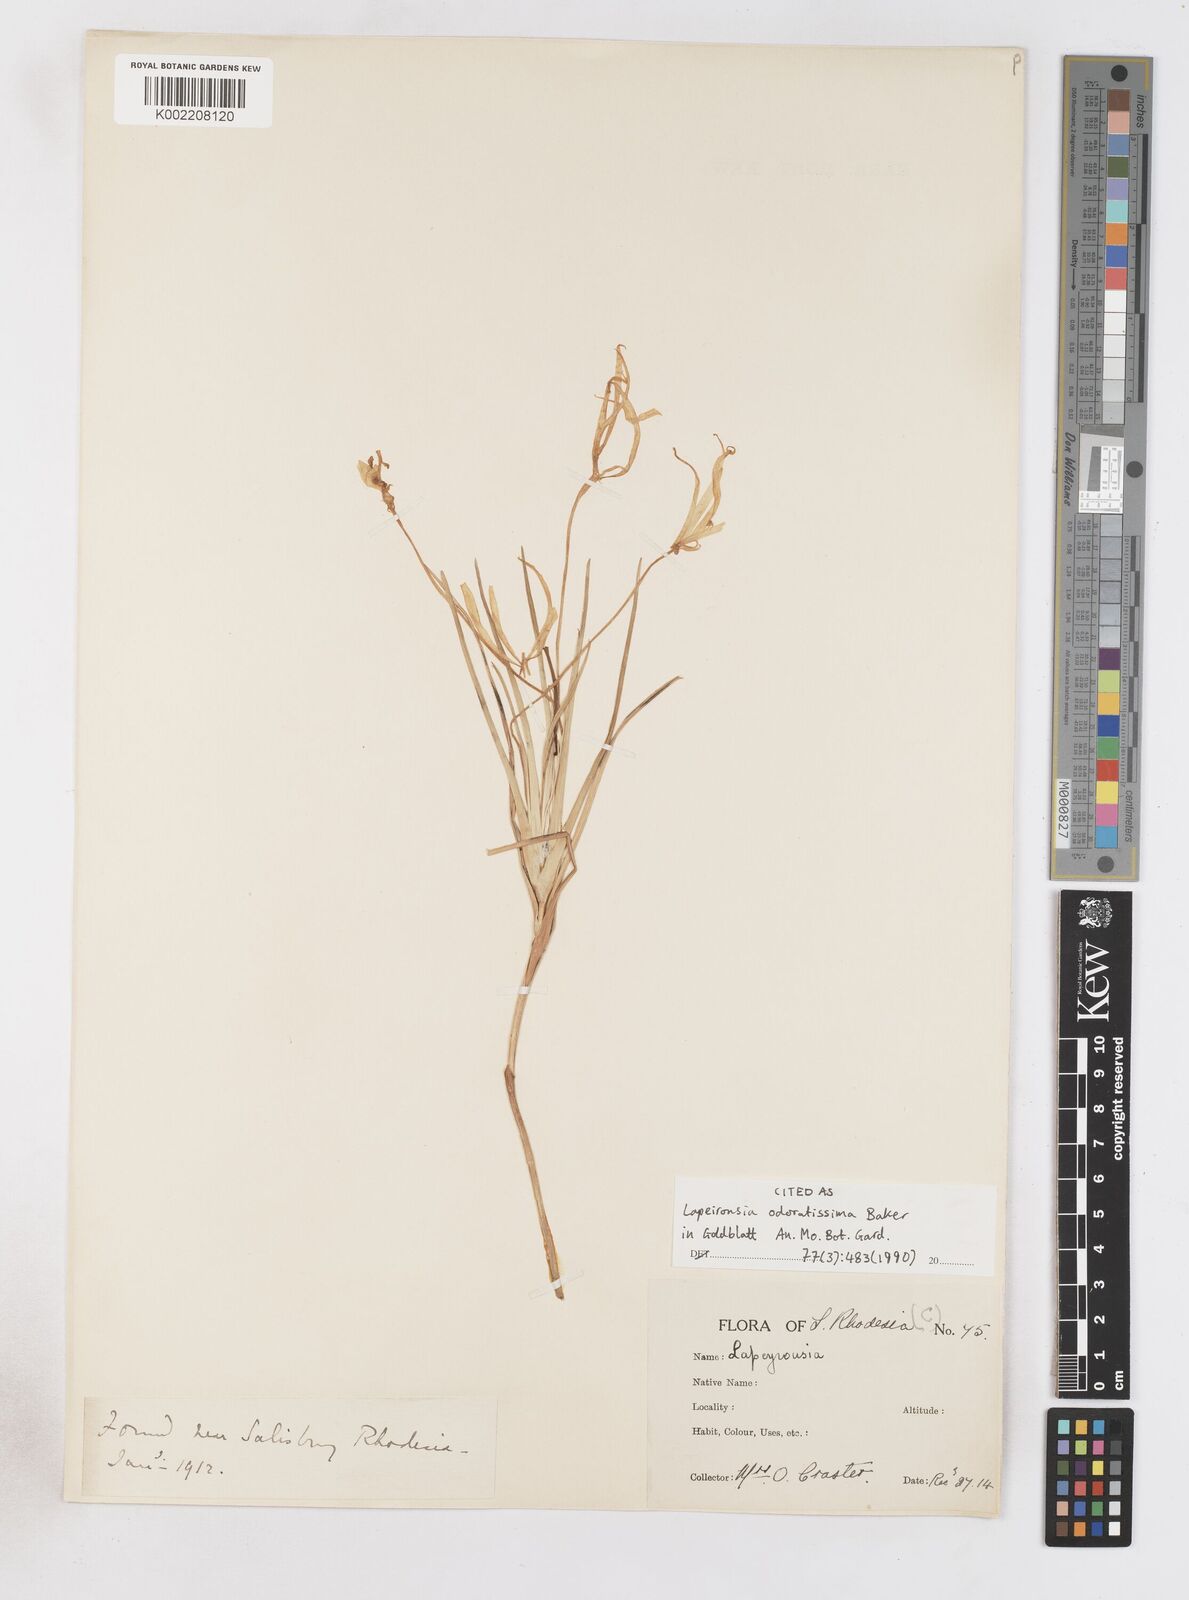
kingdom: Plantae
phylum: Tracheophyta
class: Liliopsida
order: Asparagales
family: Iridaceae
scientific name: Iridaceae
